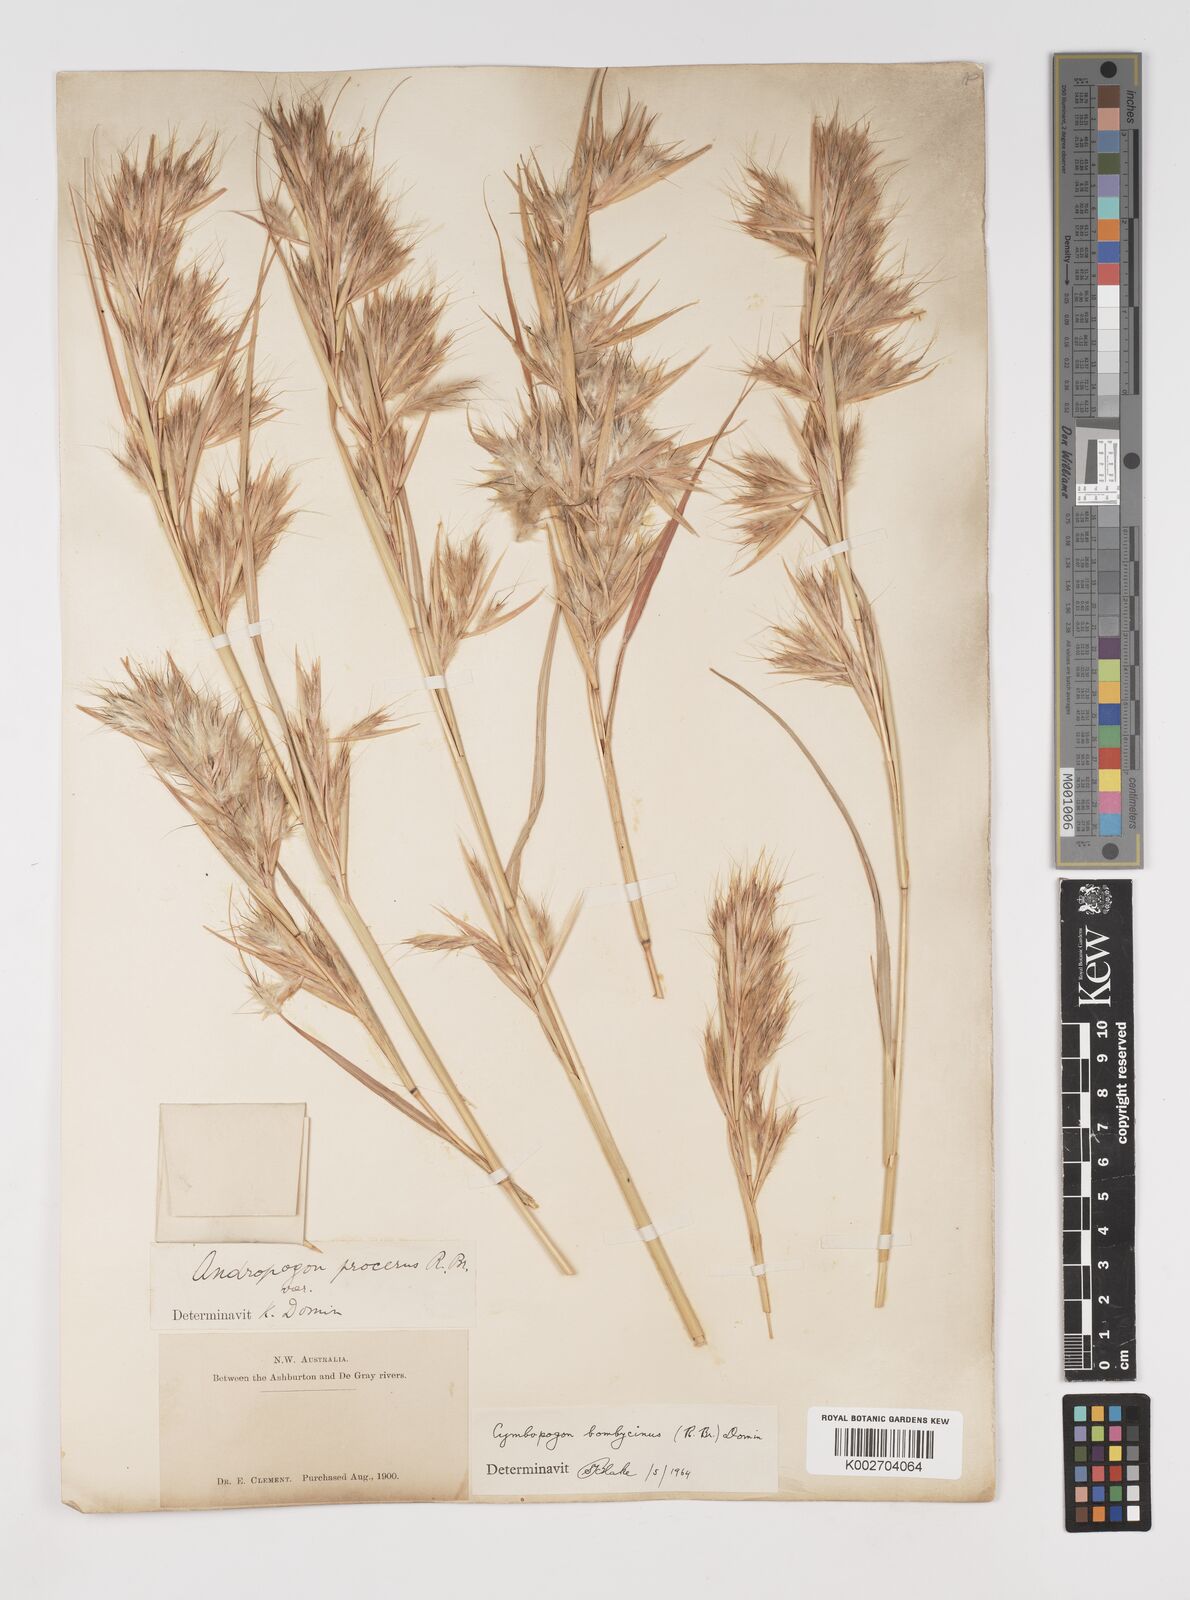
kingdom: Plantae
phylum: Tracheophyta
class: Liliopsida
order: Poales
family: Poaceae
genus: Cymbopogon
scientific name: Cymbopogon ambiguus
